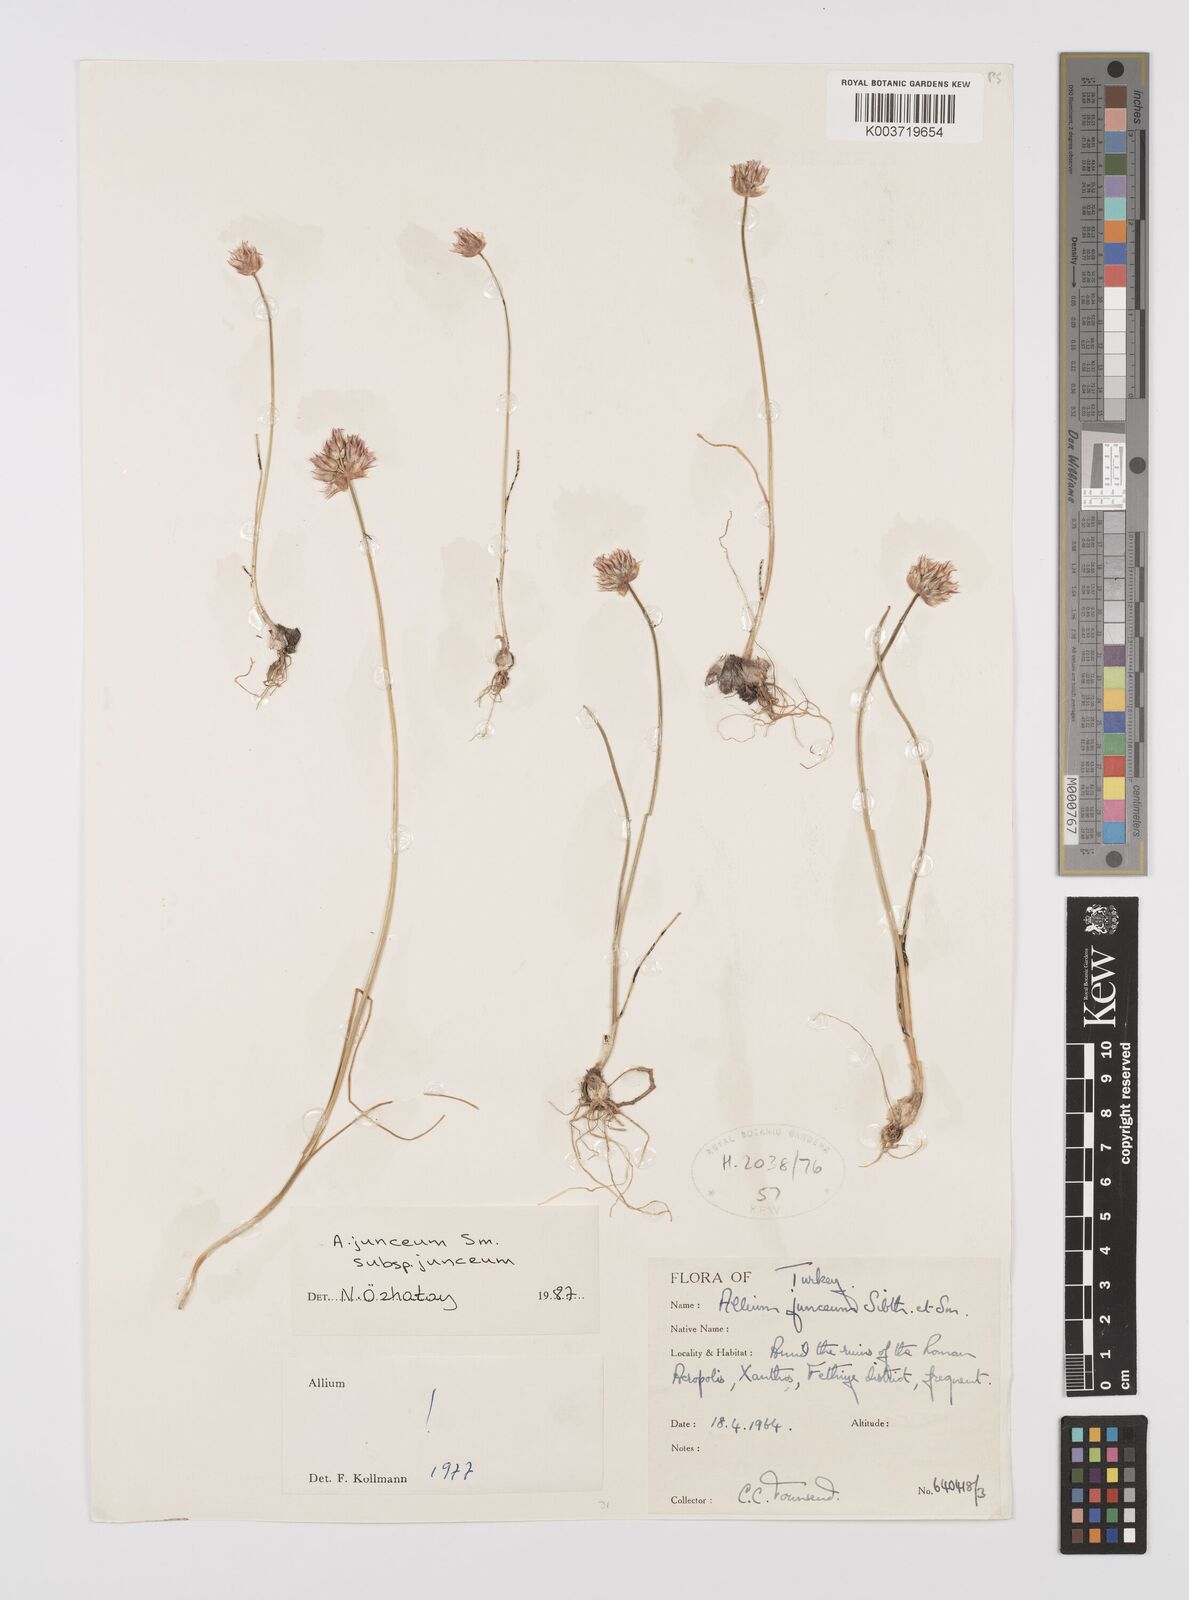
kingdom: Plantae
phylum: Tracheophyta
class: Liliopsida
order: Asparagales
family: Amaryllidaceae
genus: Allium
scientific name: Allium junceum
